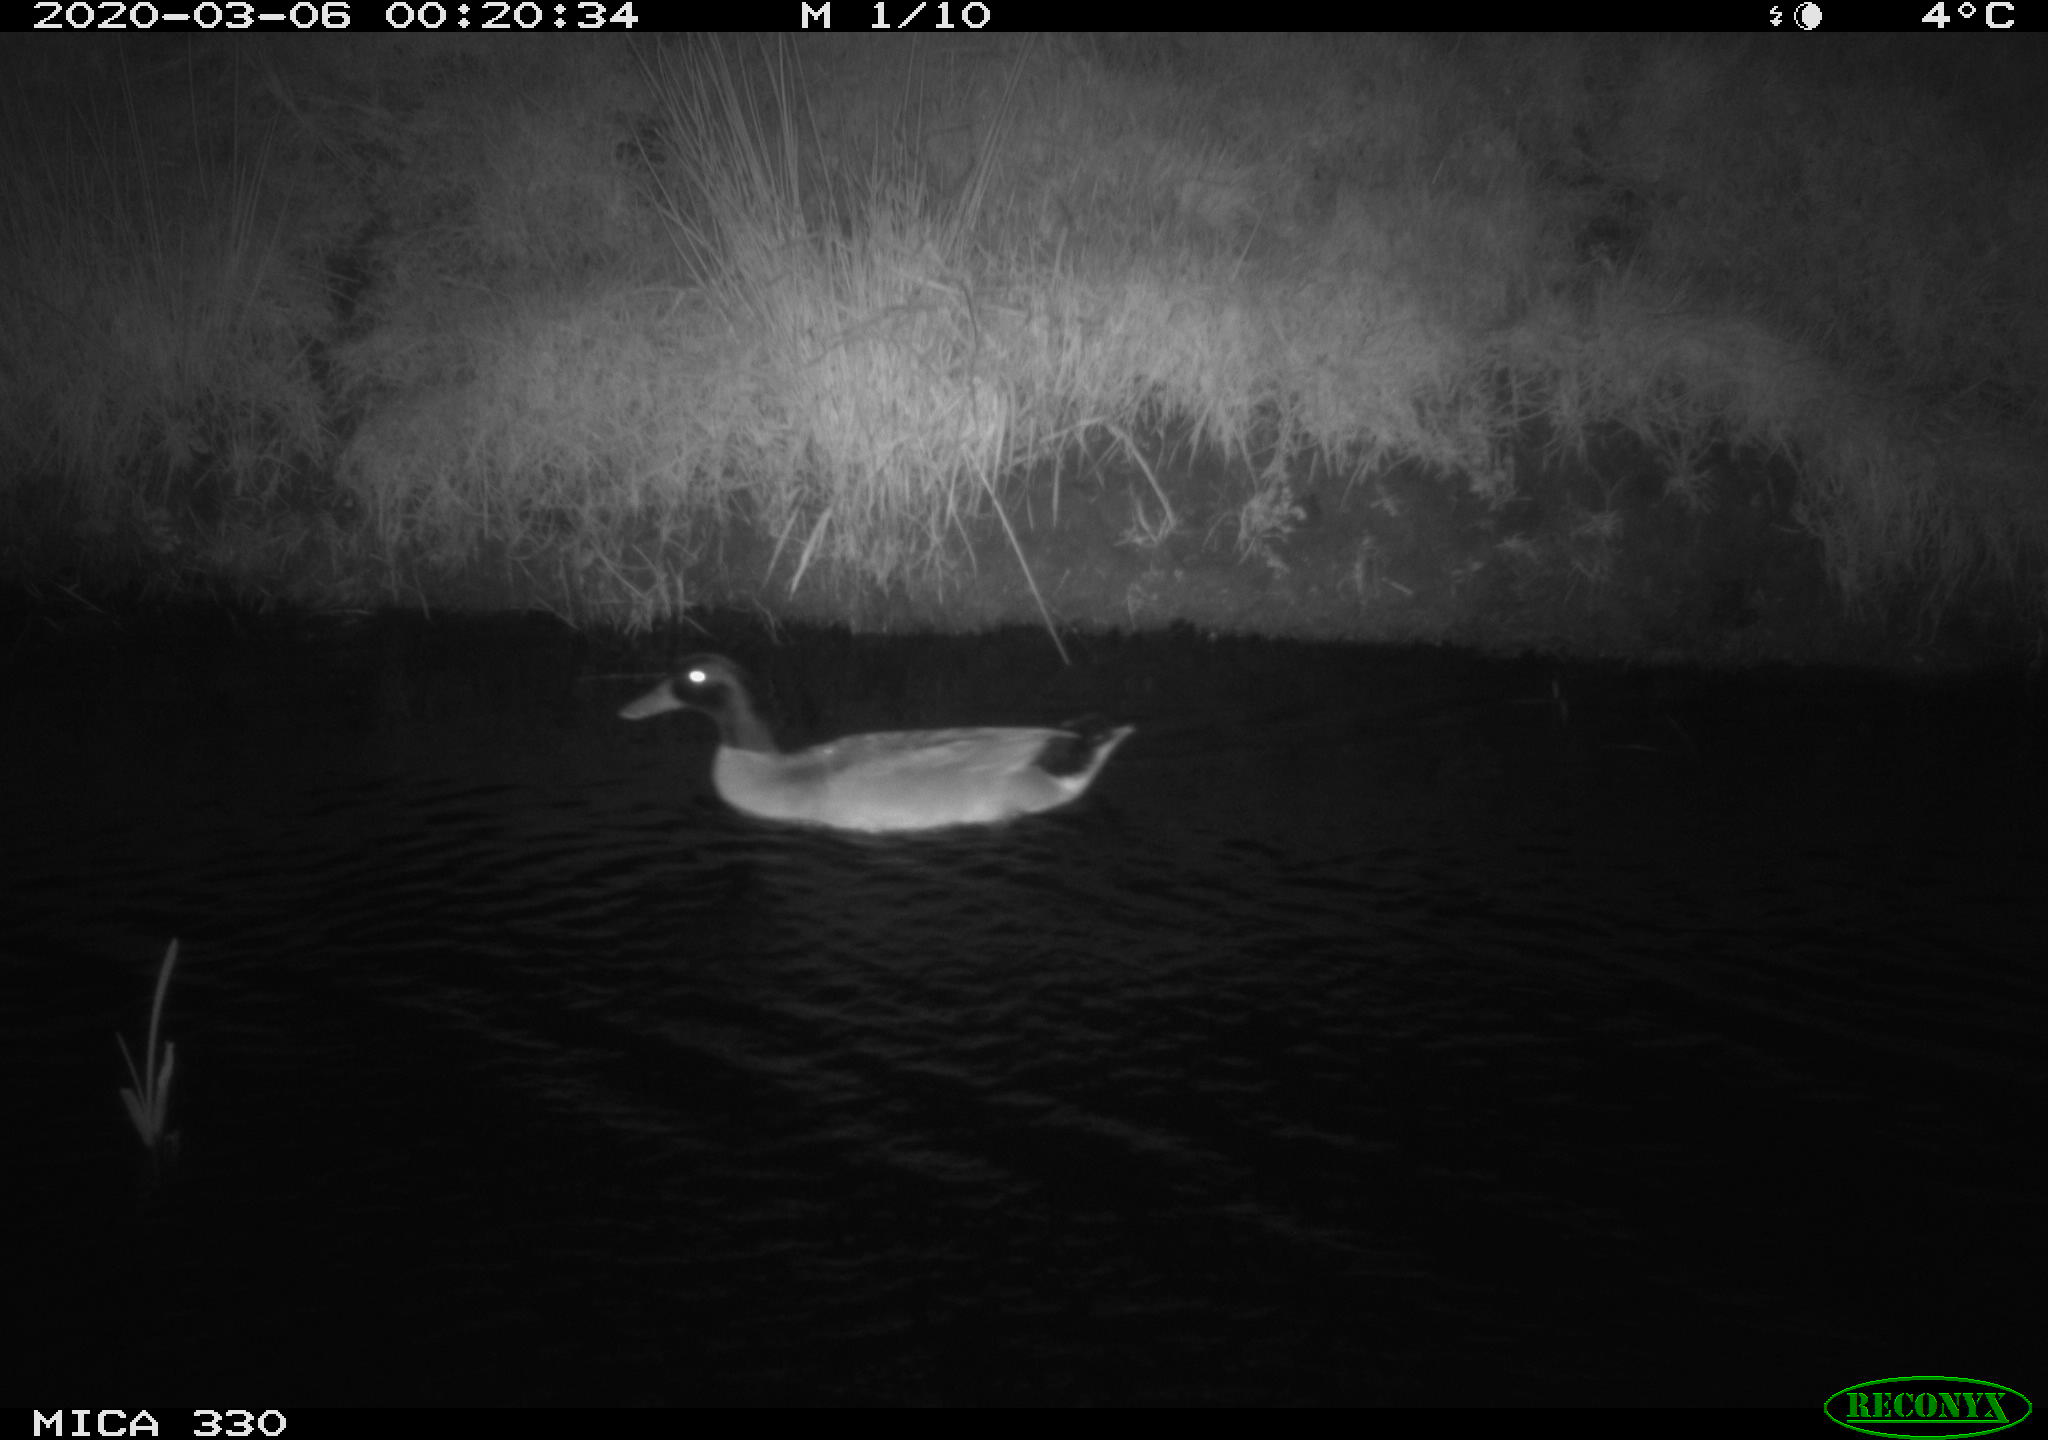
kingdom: Animalia
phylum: Chordata
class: Aves
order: Anseriformes
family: Anatidae
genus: Anas
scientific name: Anas platyrhynchos
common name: Mallard
